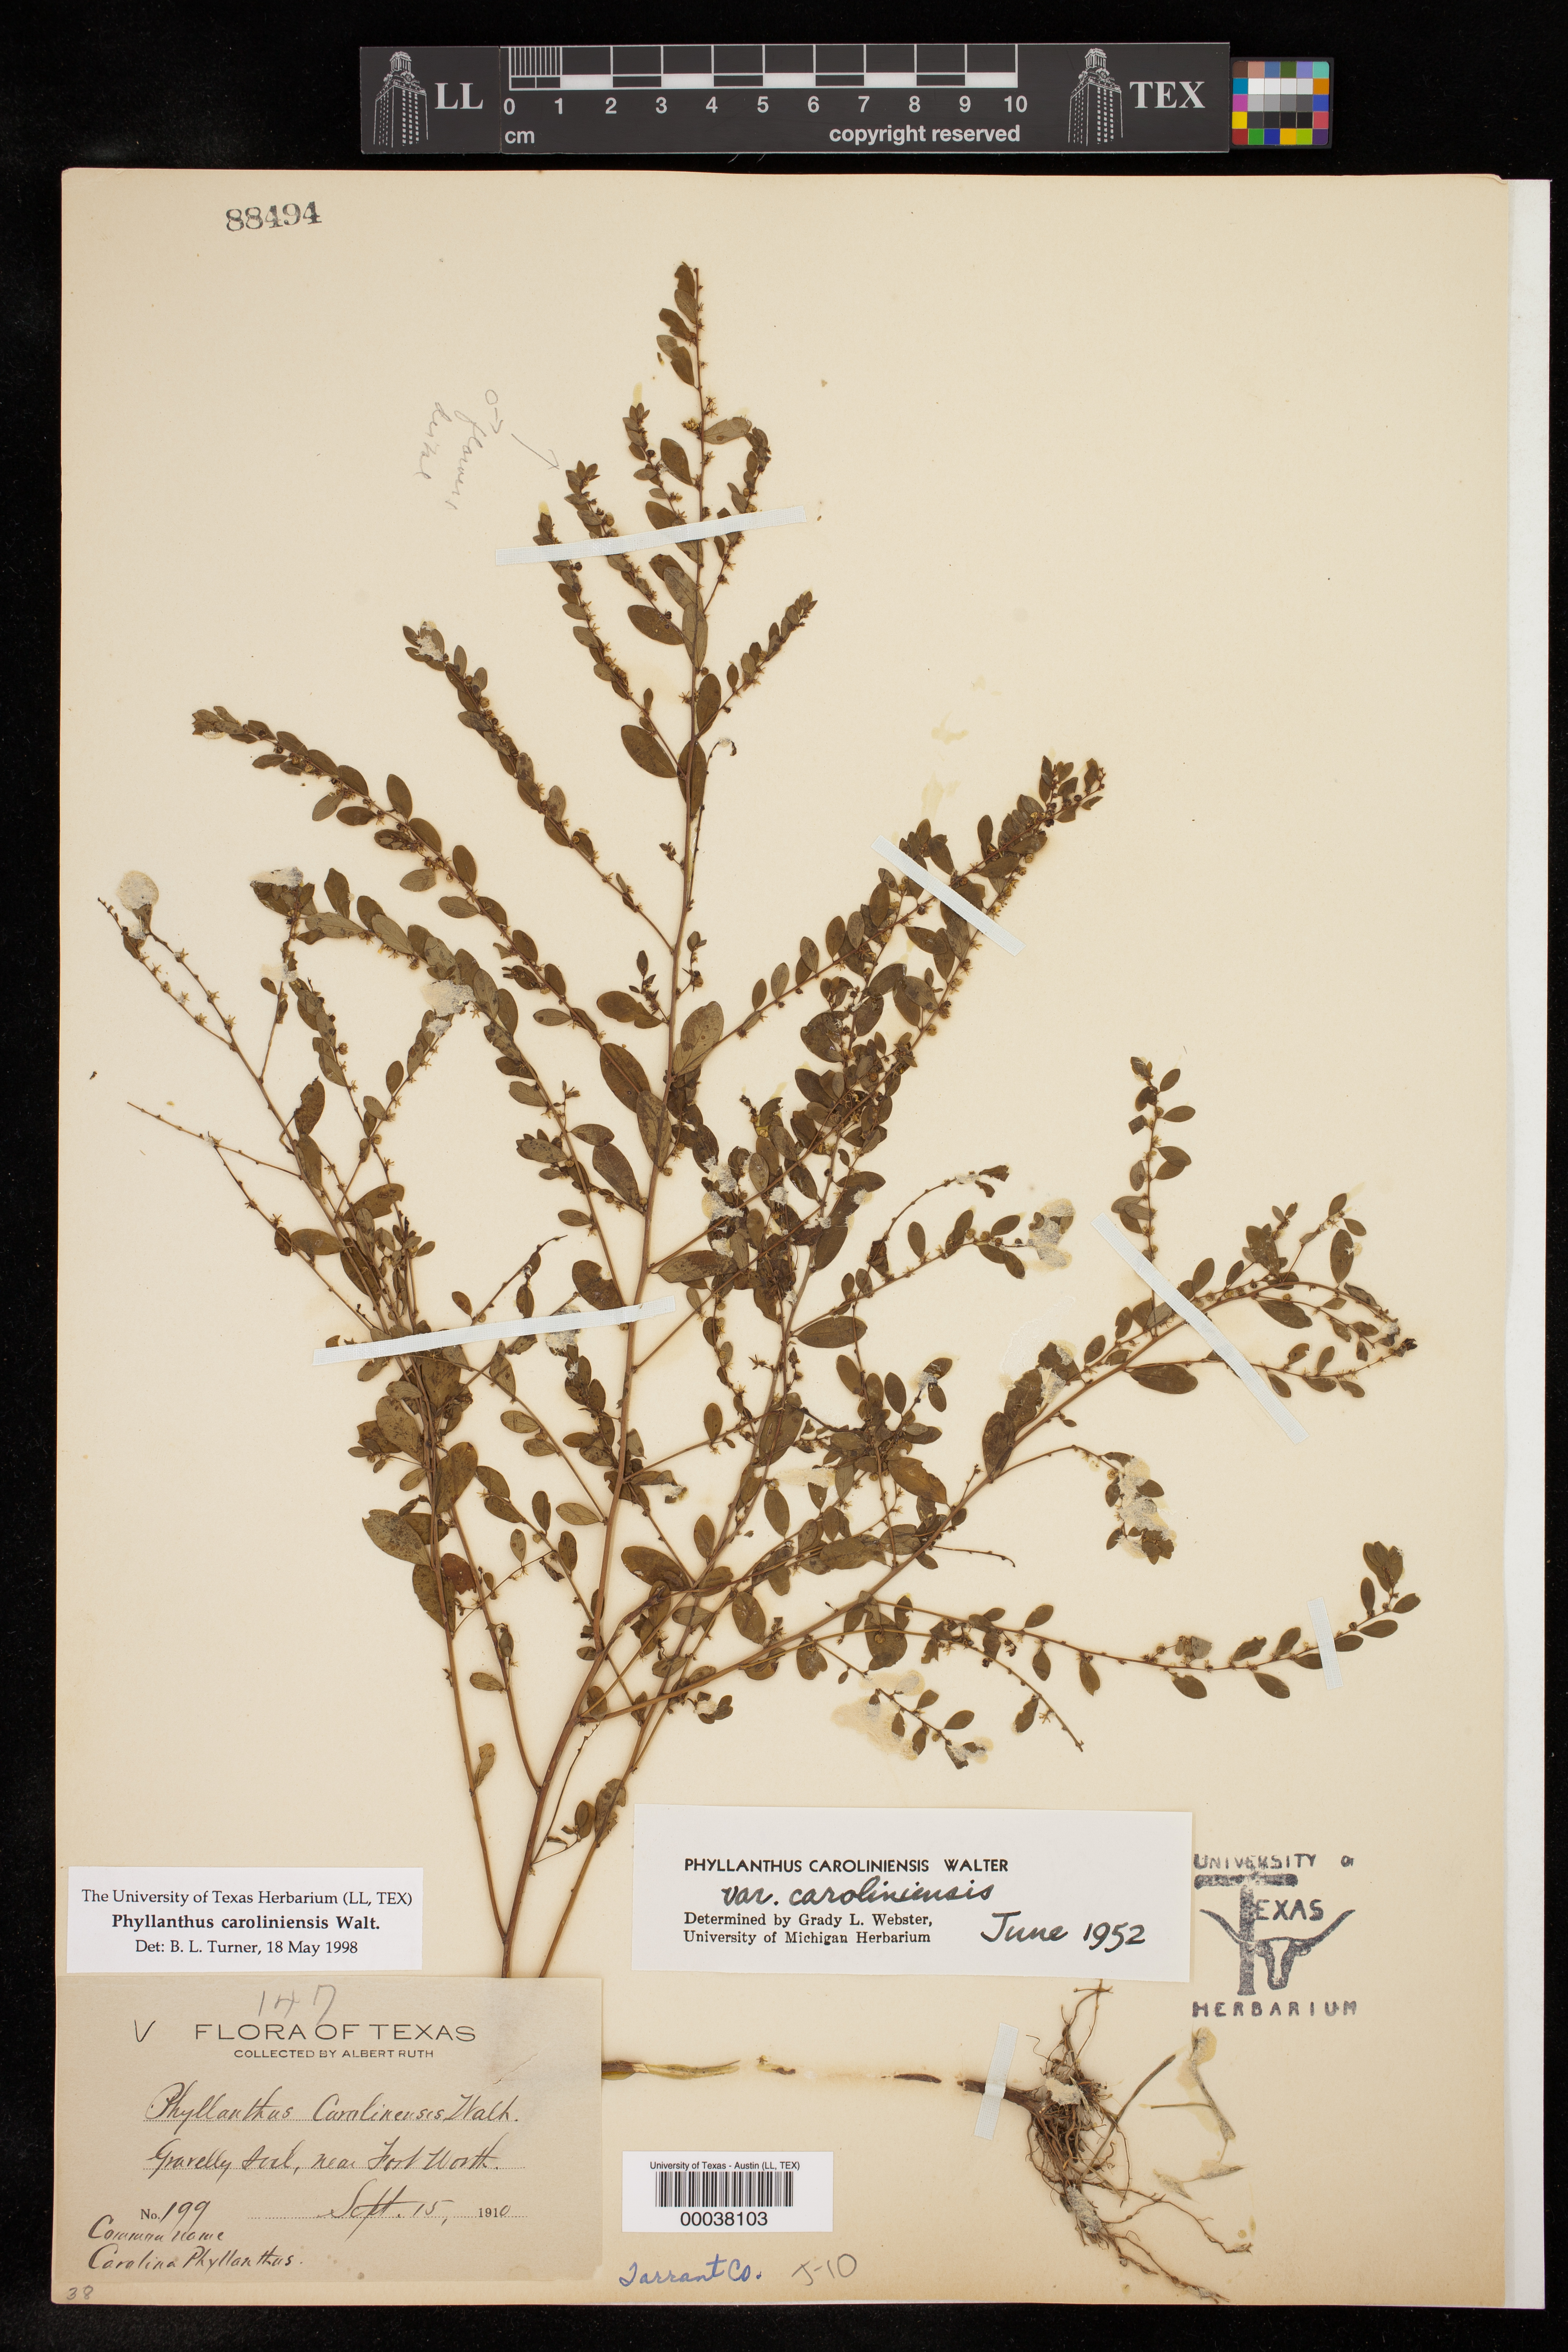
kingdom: Plantae
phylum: Tracheophyta
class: Magnoliopsida
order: Malpighiales
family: Phyllanthaceae
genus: Phyllanthus
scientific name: Phyllanthus caroliniensis
